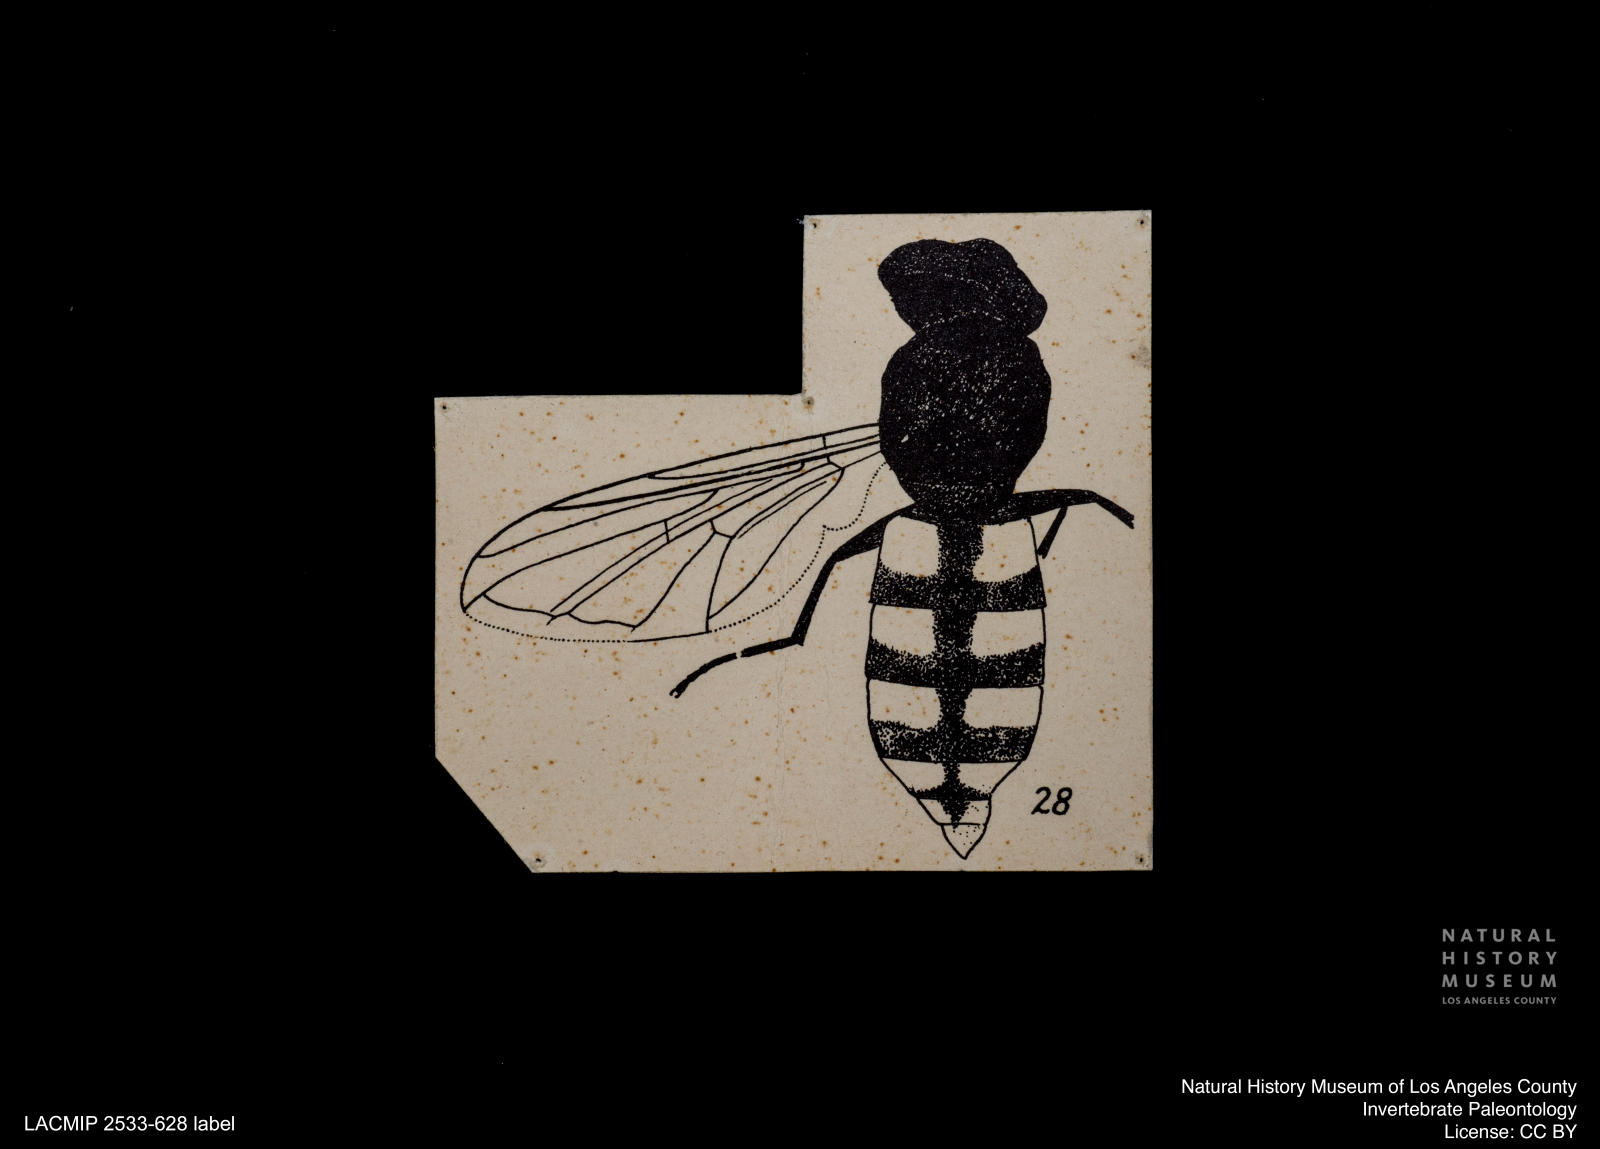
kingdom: Animalia
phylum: Arthropoda
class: Insecta
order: Diptera
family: Syrphidae
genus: Epistrophe
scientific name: Epistrophe kastenholzi
